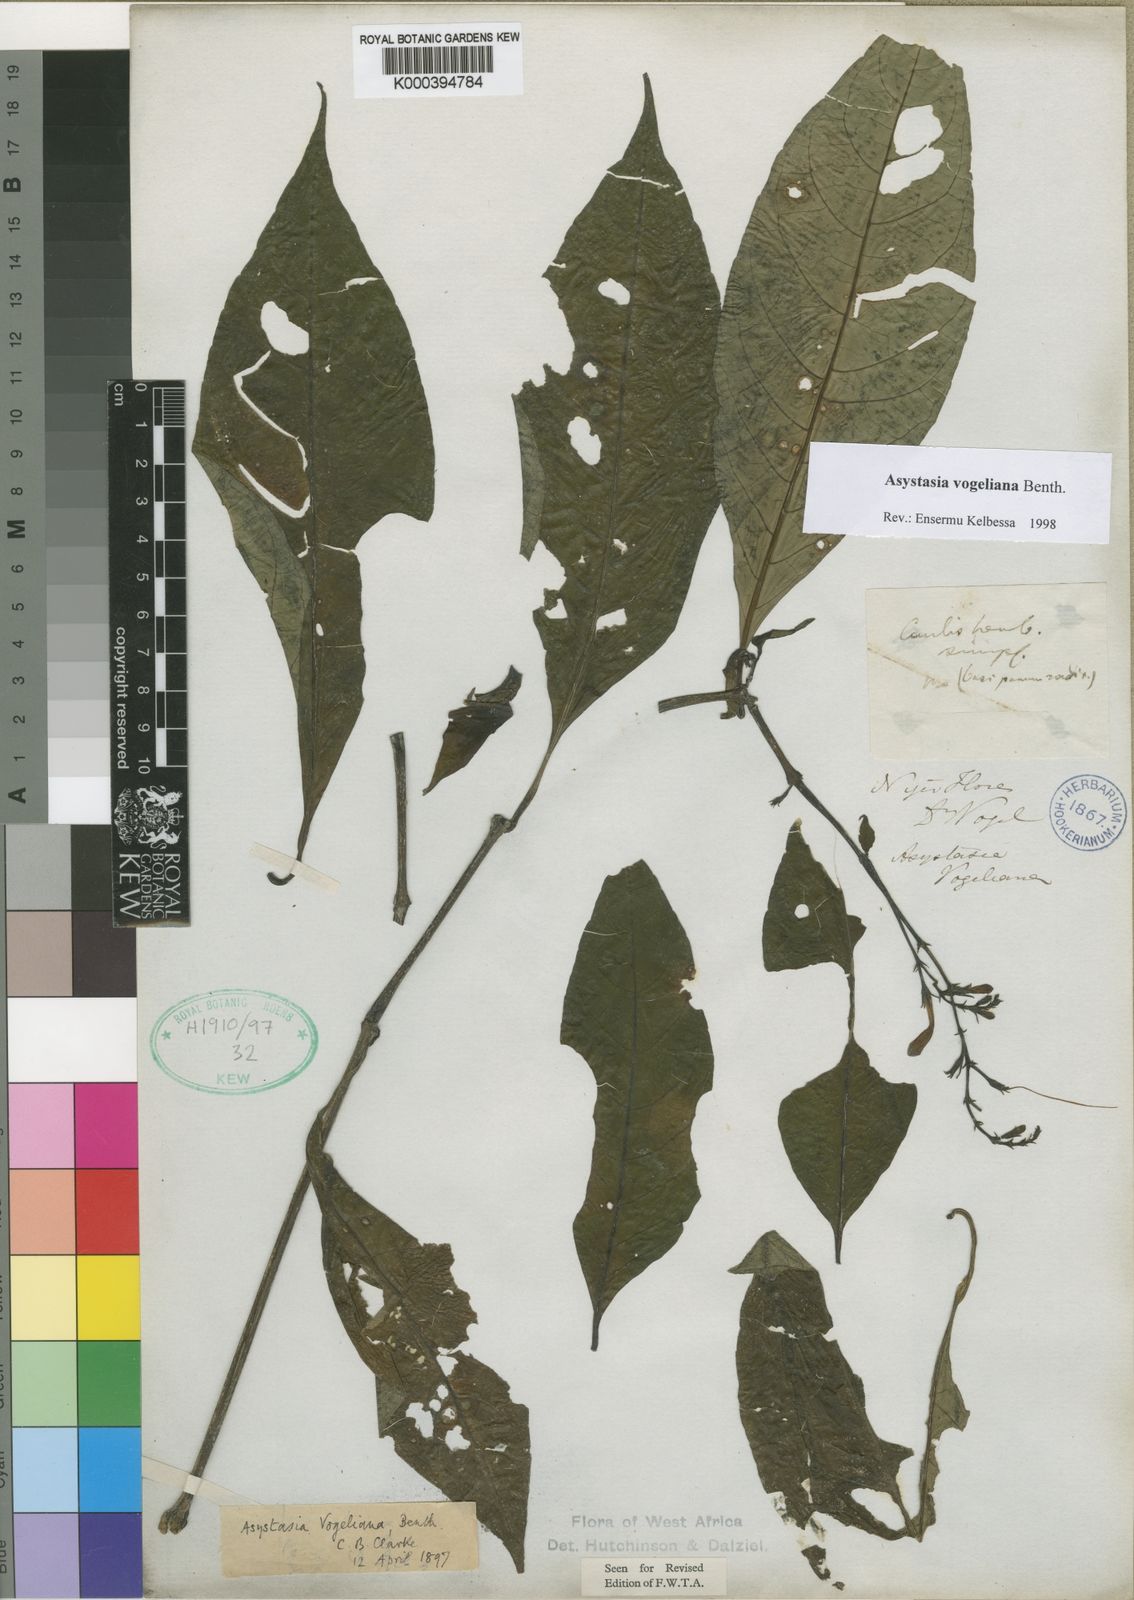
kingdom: Plantae
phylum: Tracheophyta
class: Magnoliopsida
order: Lamiales
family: Acanthaceae
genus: Asystasia
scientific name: Asystasia vogeliana
